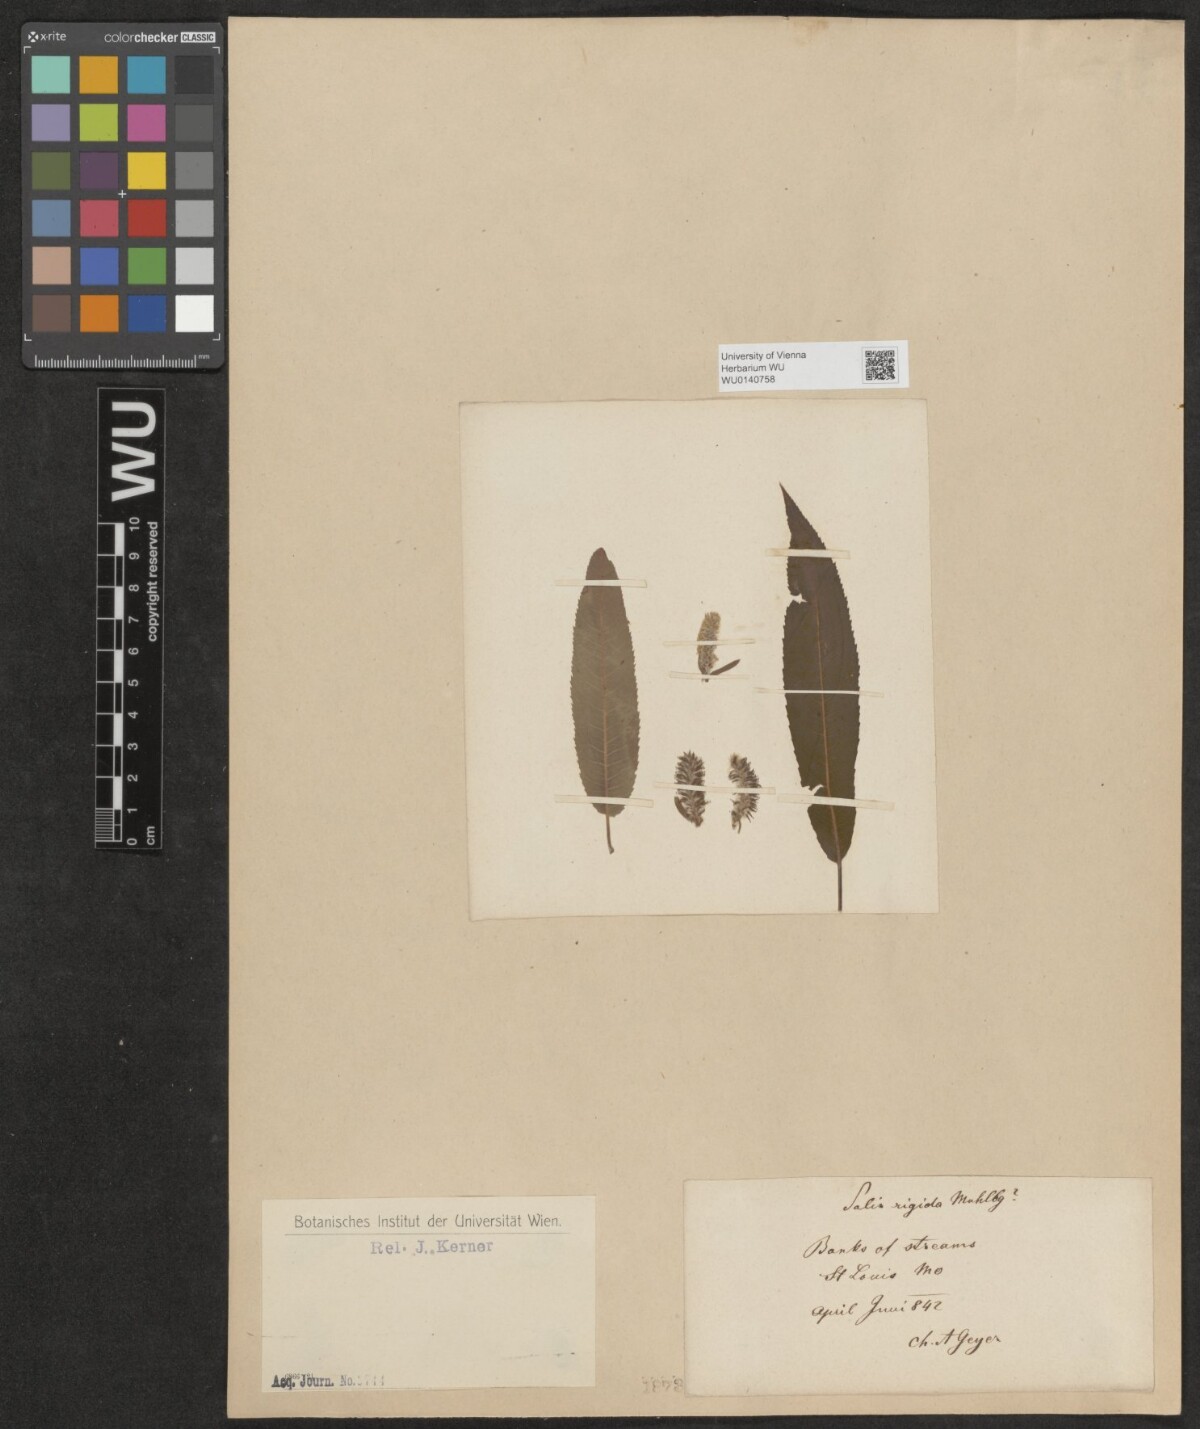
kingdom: Plantae
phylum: Tracheophyta
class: Magnoliopsida
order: Malpighiales
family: Salicaceae
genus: Salix
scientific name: Salix
